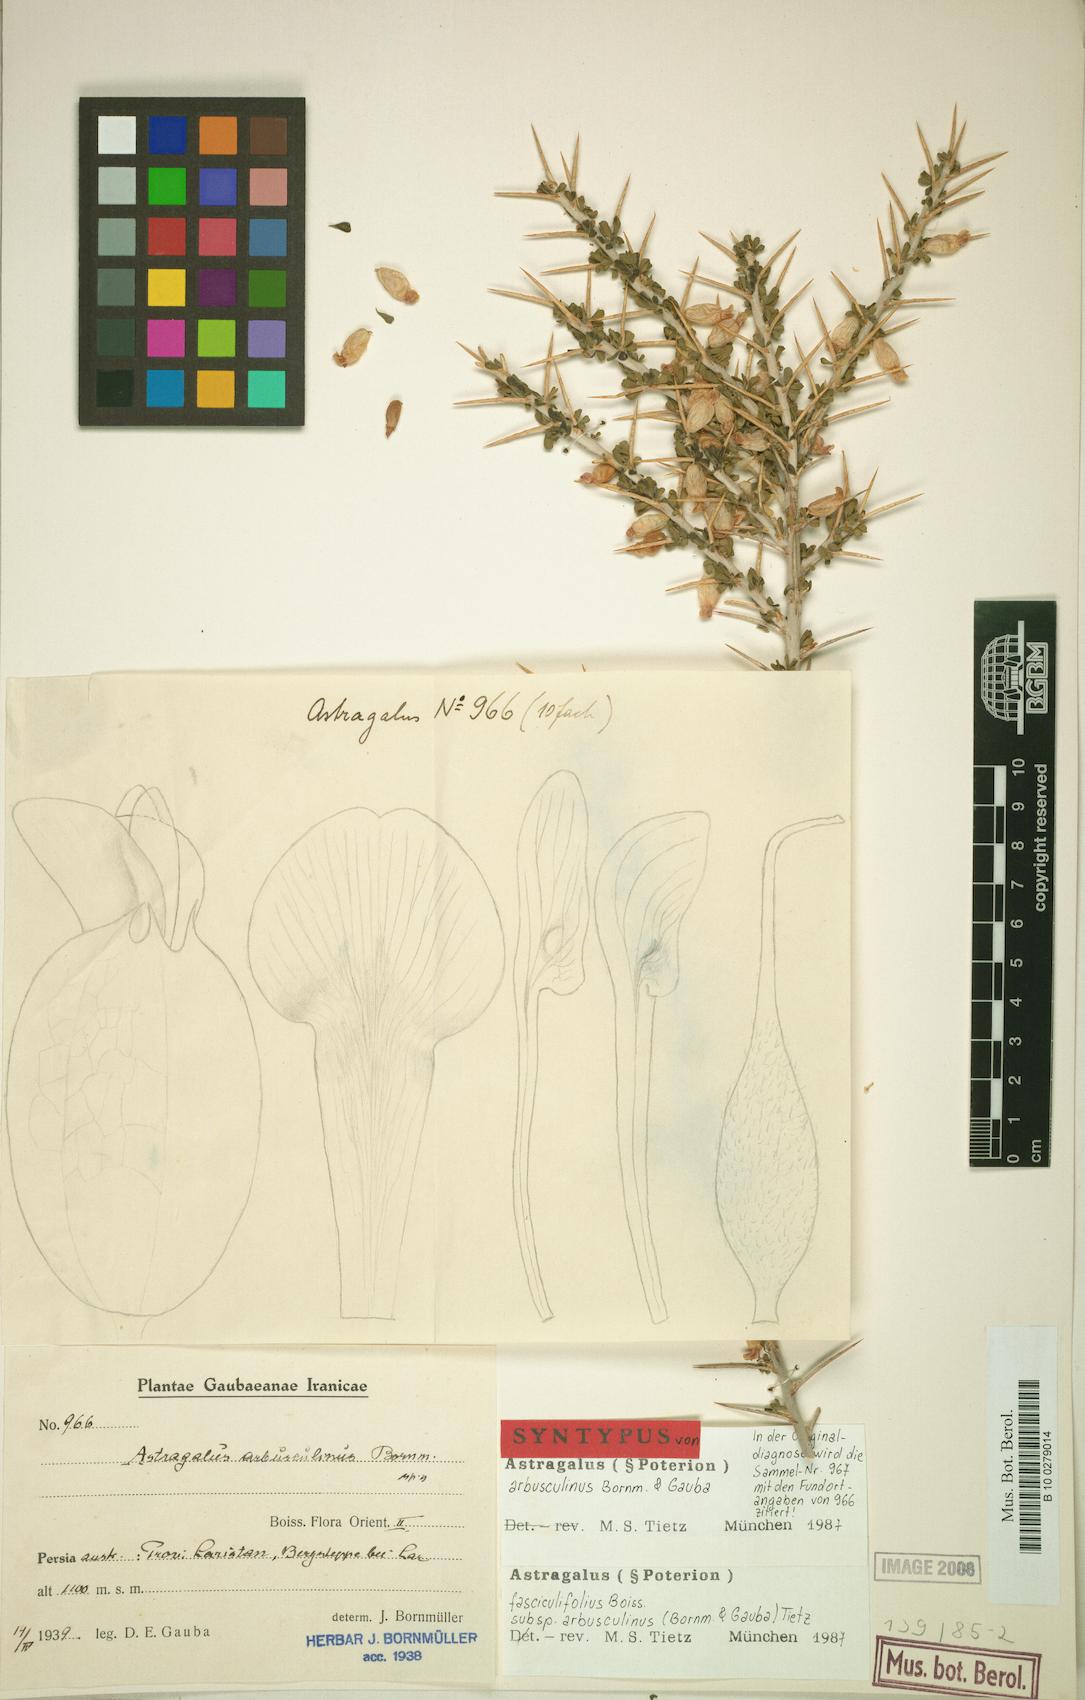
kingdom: Plantae
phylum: Tracheophyta
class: Magnoliopsida
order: Fabales
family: Fabaceae
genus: Astragalus
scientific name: Astragalus fasciculifolius
